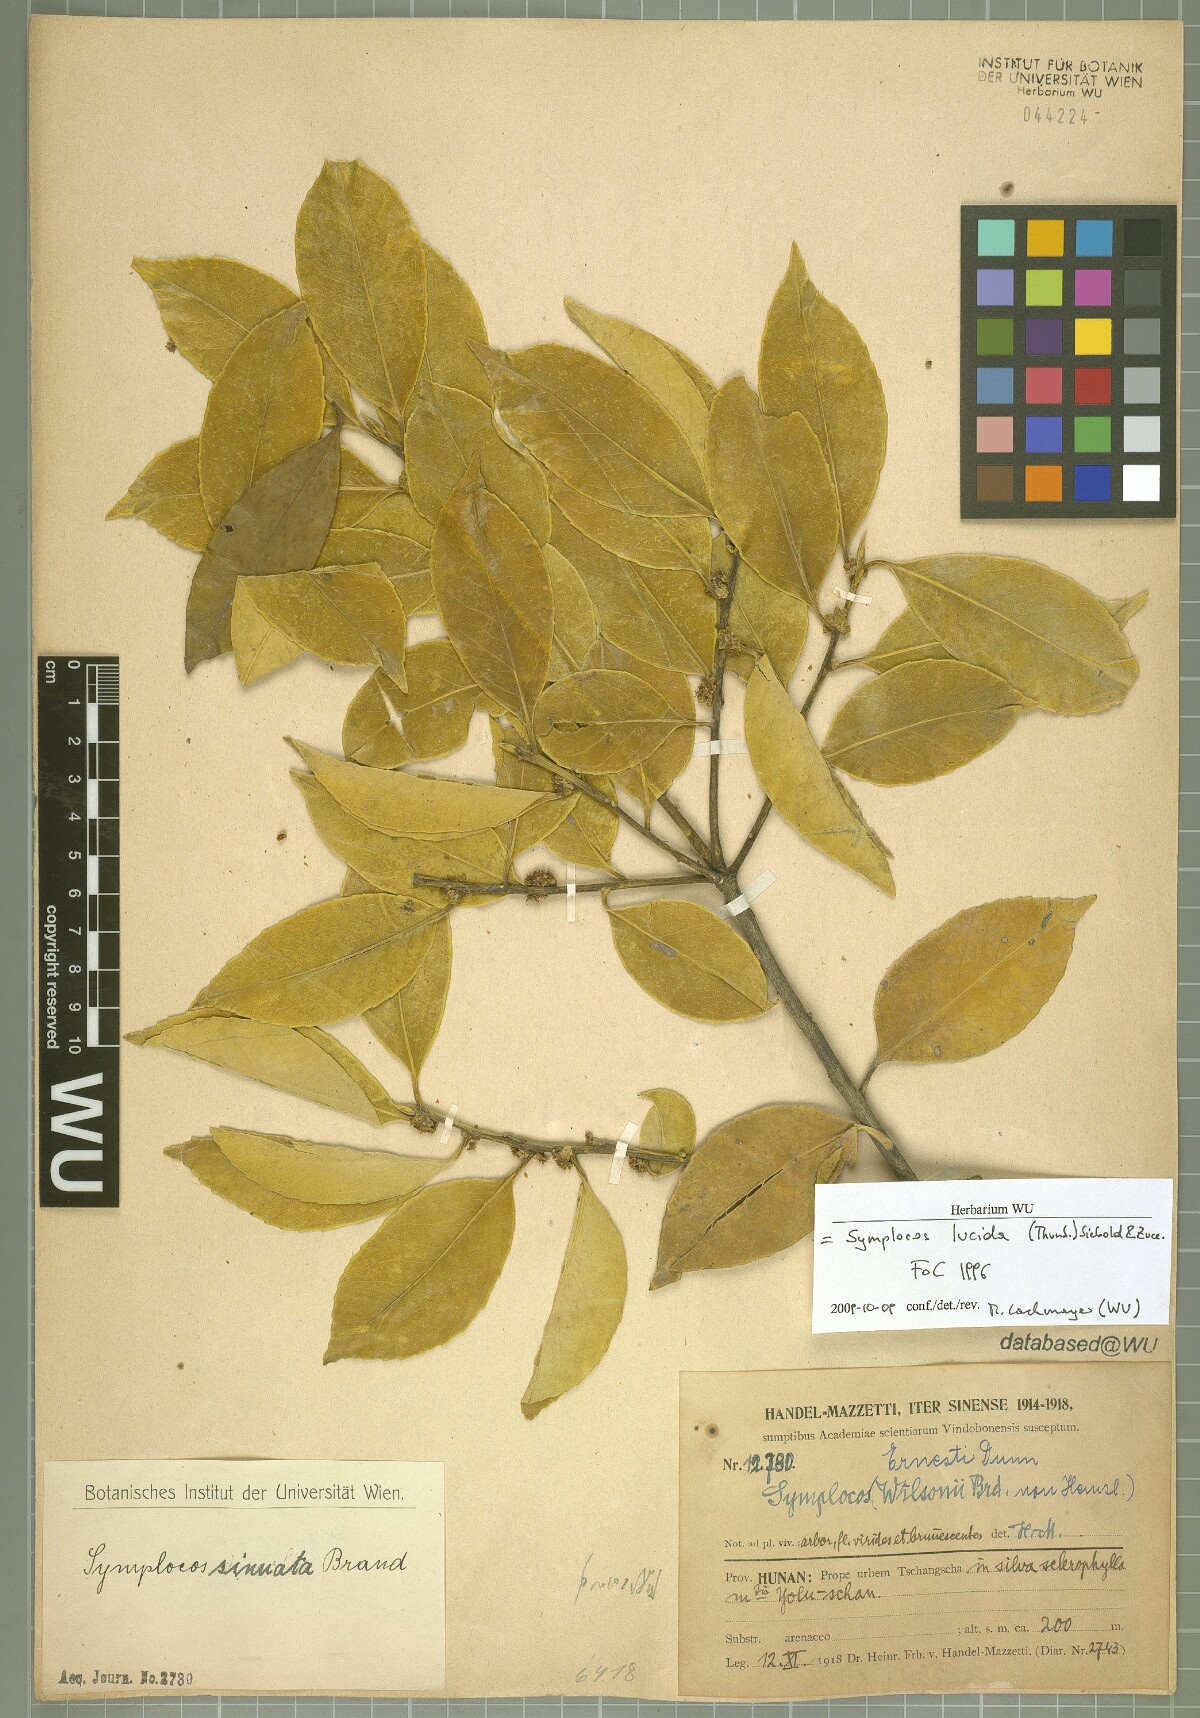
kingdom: Plantae
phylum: Tracheophyta
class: Magnoliopsida
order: Ericales
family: Symplocaceae
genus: Symplocos
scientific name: Symplocos nakaharae
